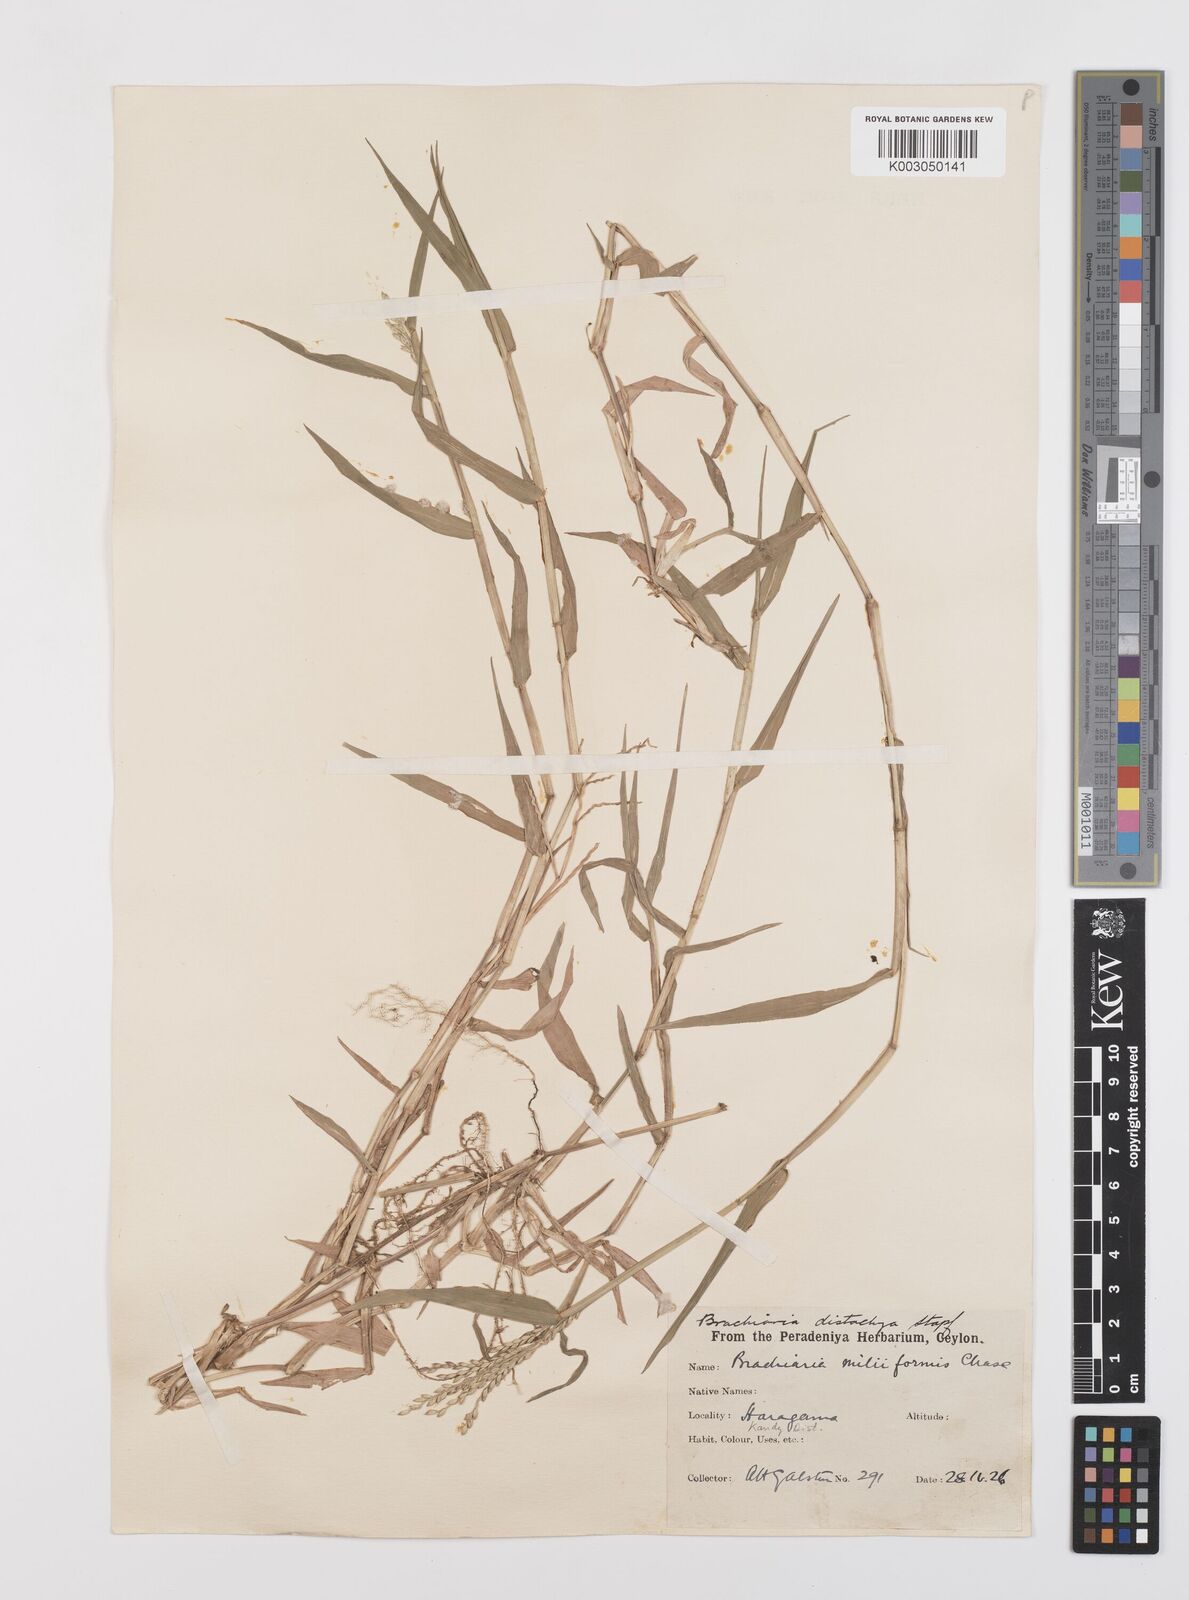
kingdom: Plantae
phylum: Tracheophyta
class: Liliopsida
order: Poales
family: Poaceae
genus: Urochloa
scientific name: Urochloa subquadripara
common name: Armgrass millet
